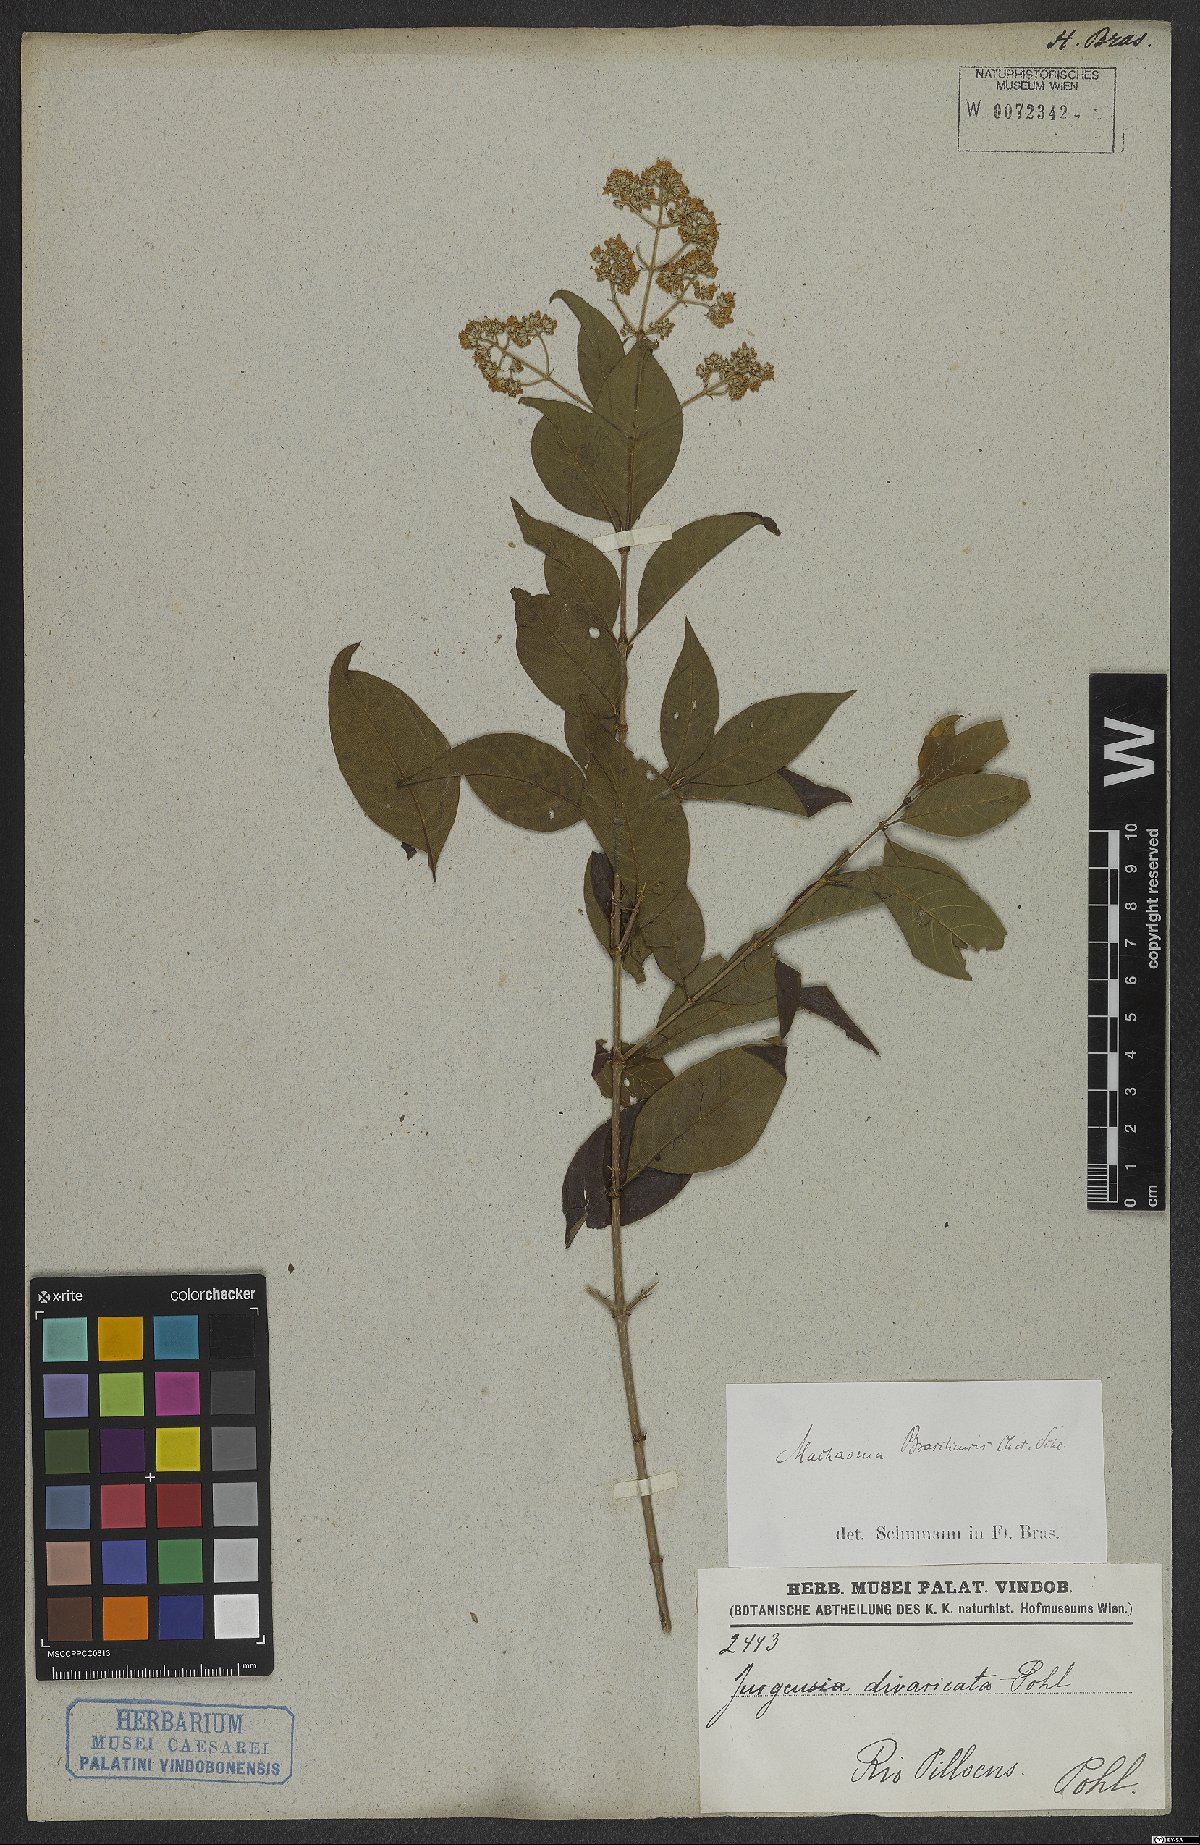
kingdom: Plantae
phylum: Tracheophyta
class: Magnoliopsida
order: Gentianales
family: Rubiaceae
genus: Machaonia
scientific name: Machaonia brasiliensis
